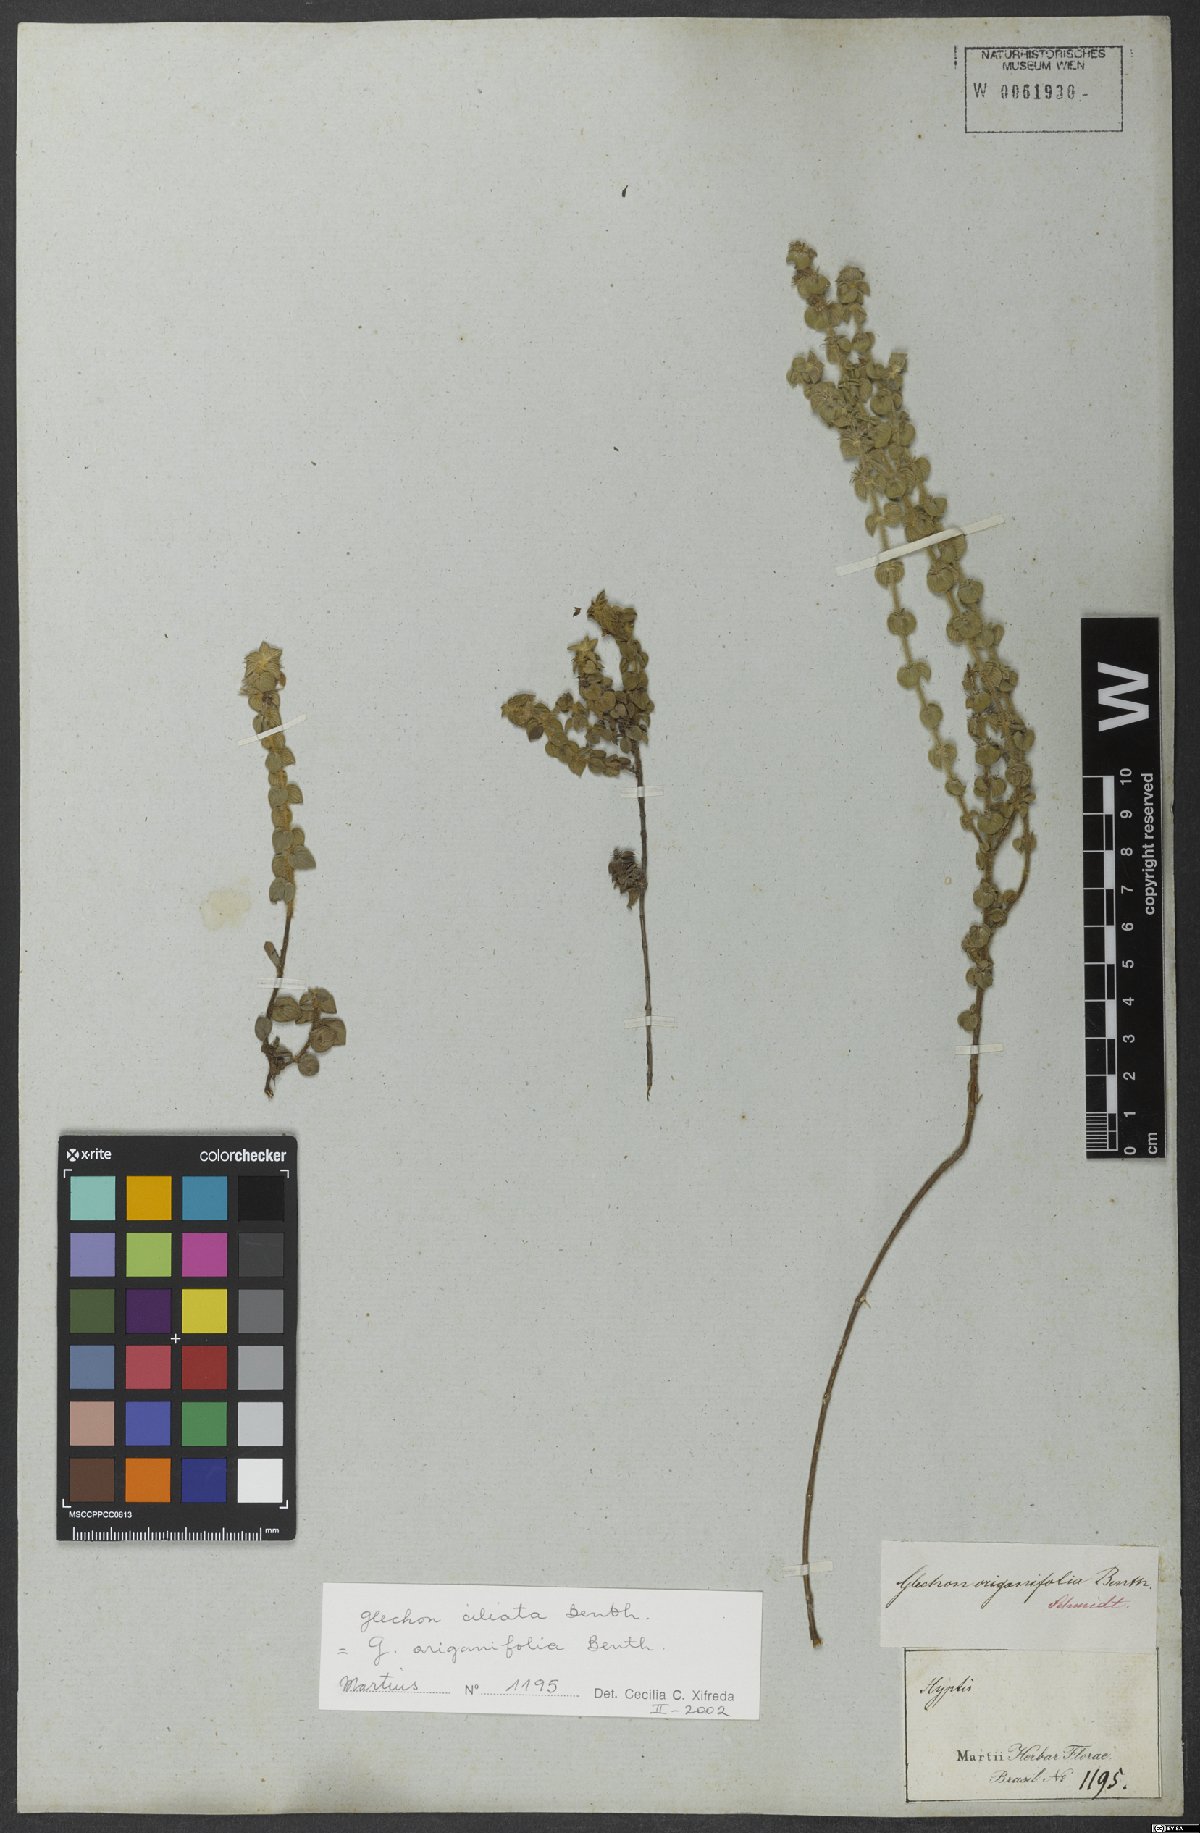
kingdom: Plantae
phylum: Tracheophyta
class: Magnoliopsida
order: Lamiales
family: Lamiaceae
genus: Glechon
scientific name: Glechon ciliata
